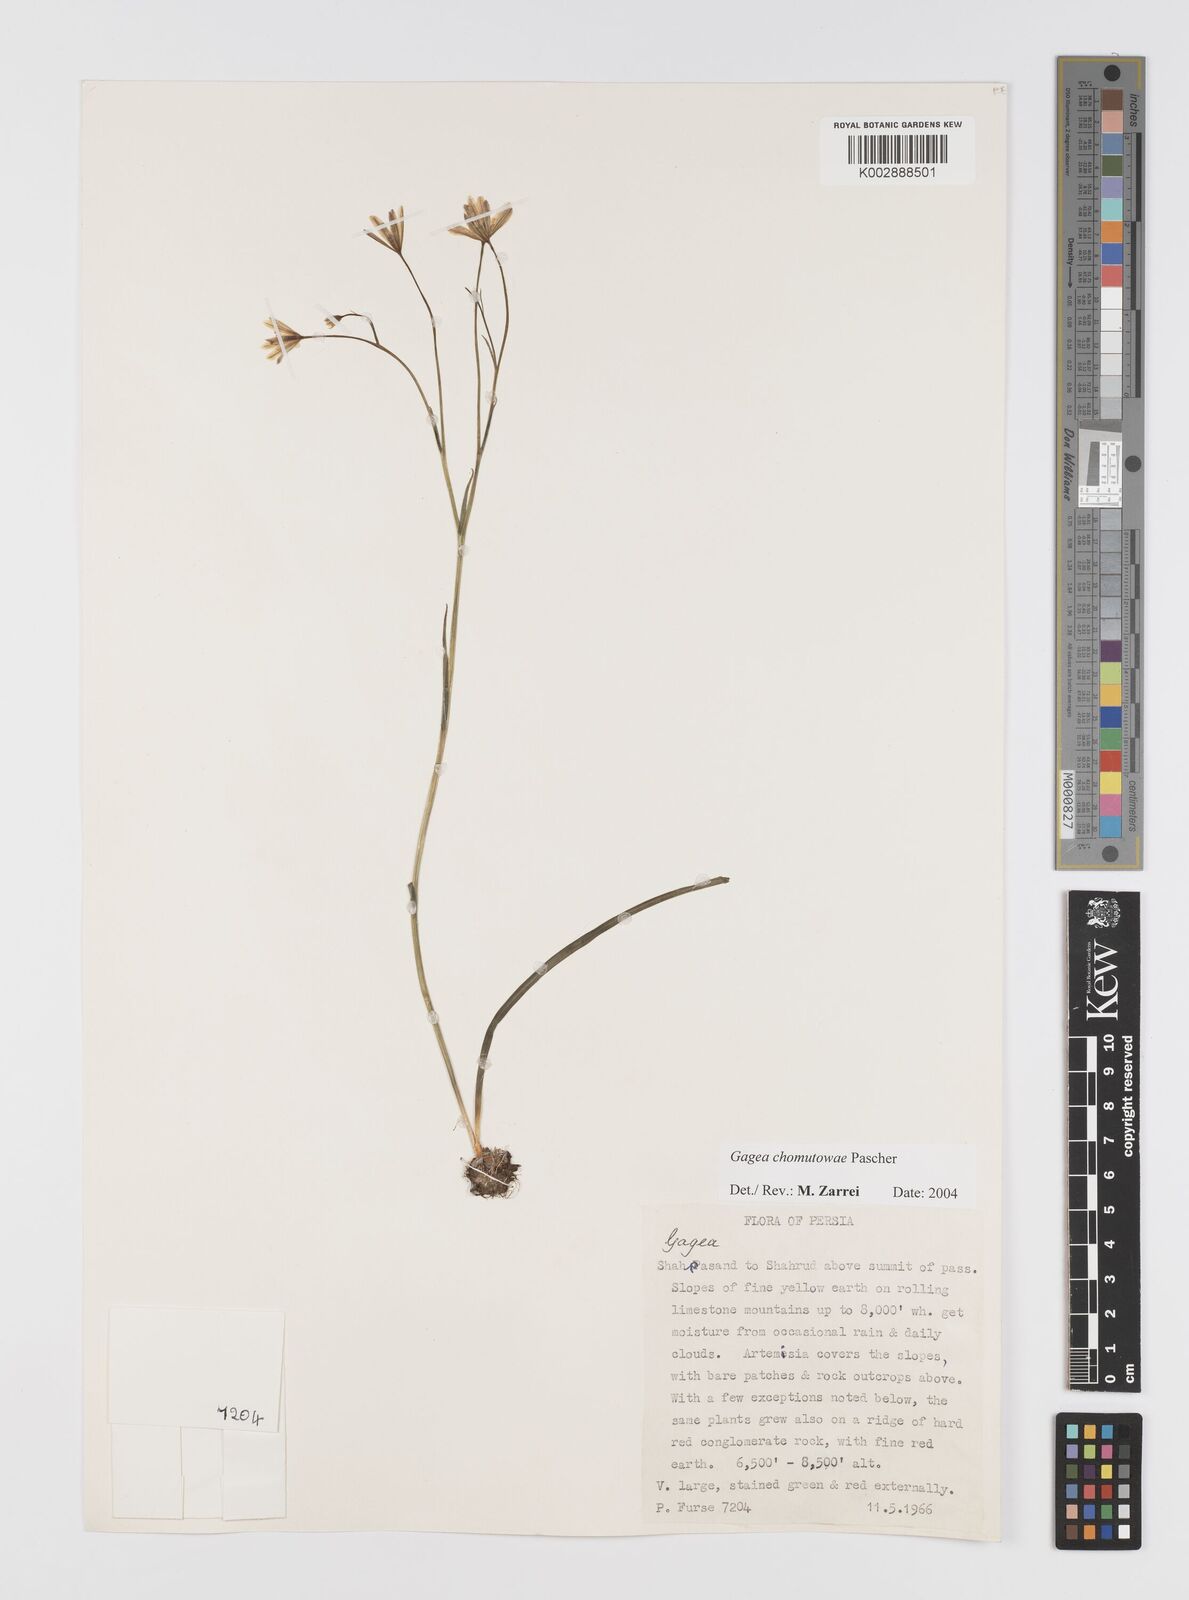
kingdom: Plantae
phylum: Tracheophyta
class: Liliopsida
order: Liliales
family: Liliaceae
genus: Gagea
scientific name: Gagea chomutovae
